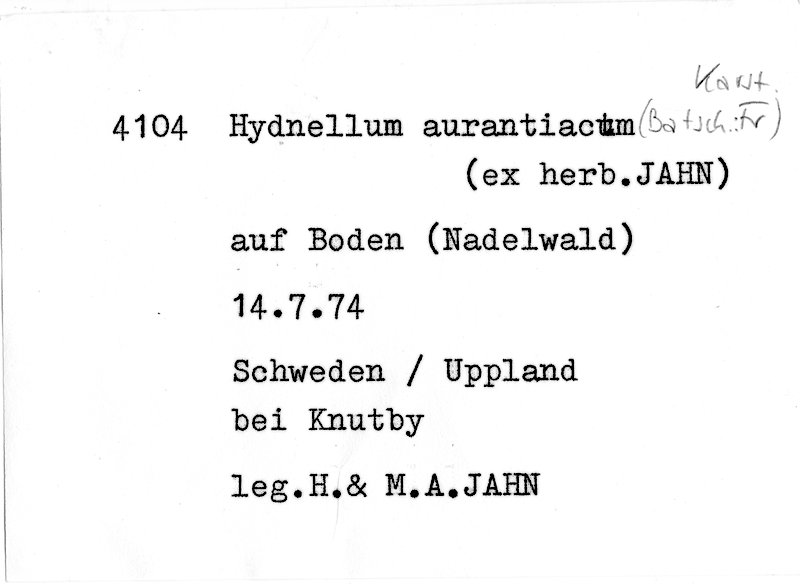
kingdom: Fungi
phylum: Basidiomycota
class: Agaricomycetes
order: Thelephorales
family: Bankeraceae
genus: Hydnellum
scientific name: Hydnellum aurantiacum
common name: Orange tooth
